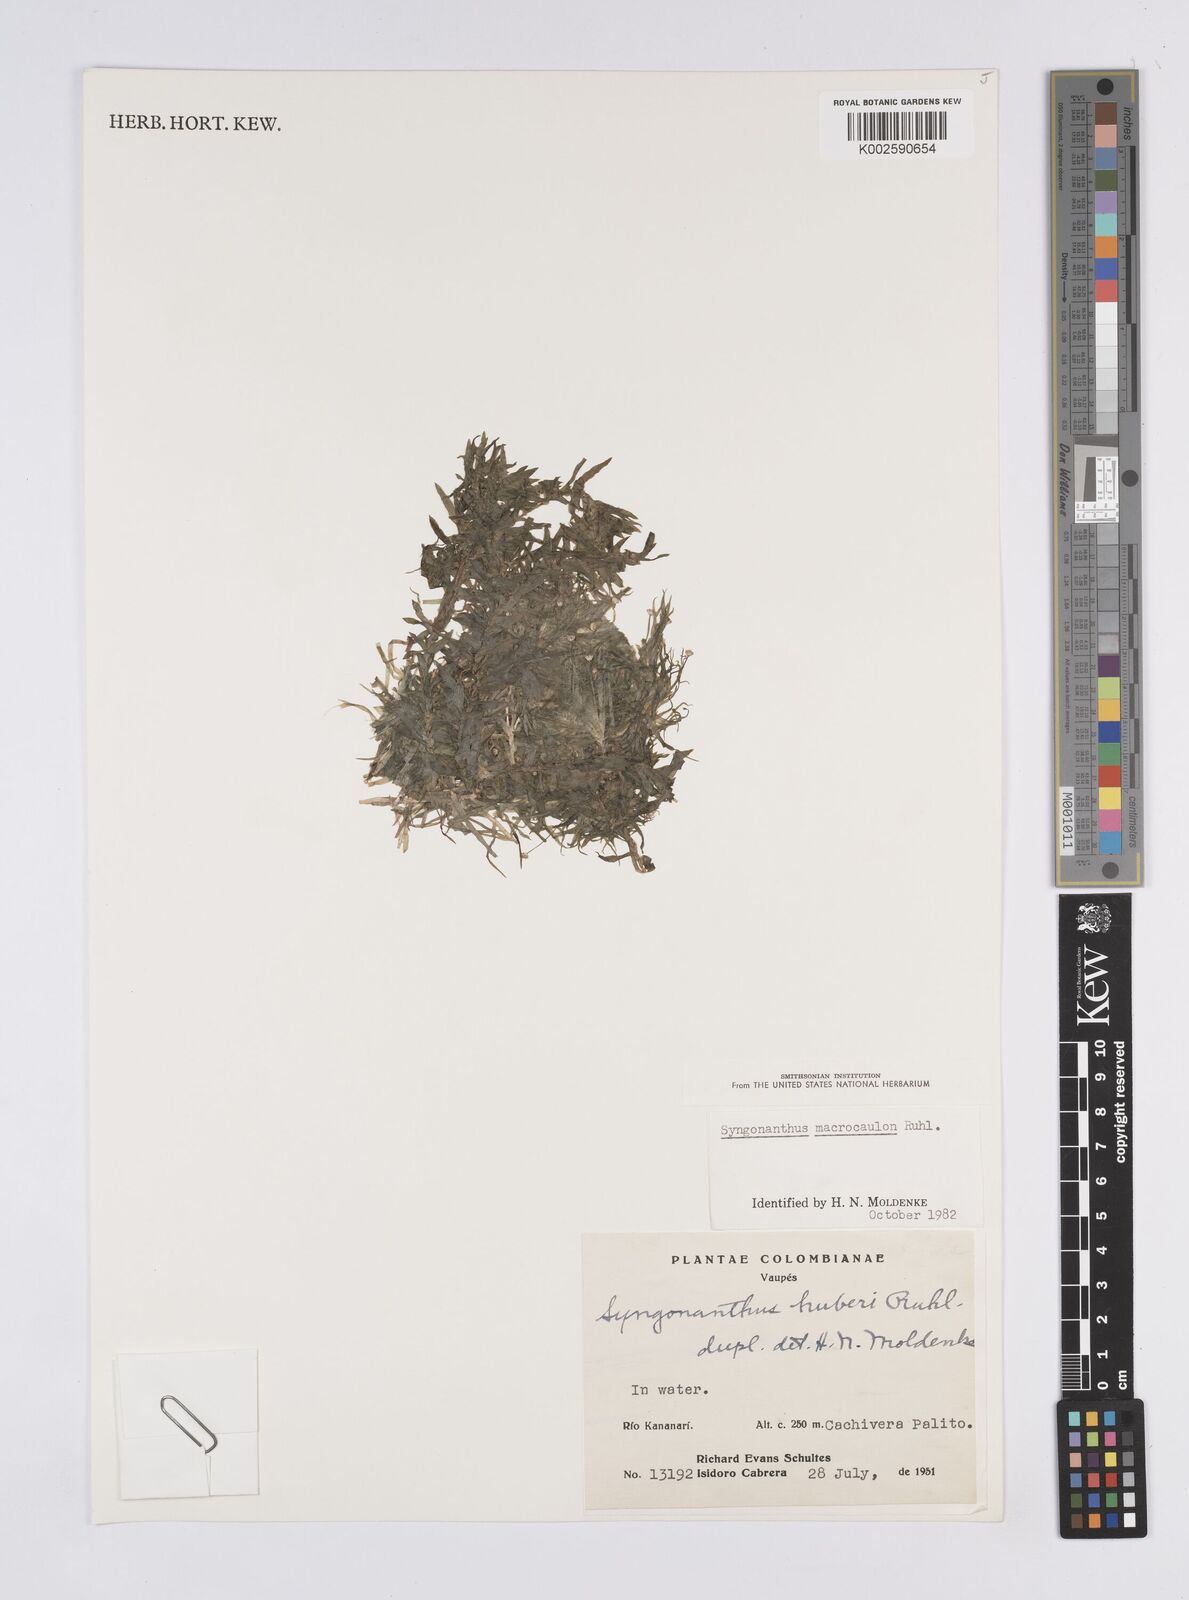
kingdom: Plantae
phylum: Tracheophyta
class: Liliopsida
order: Poales
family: Eriocaulaceae
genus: Syngonanthus
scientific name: Syngonanthus anomalus
